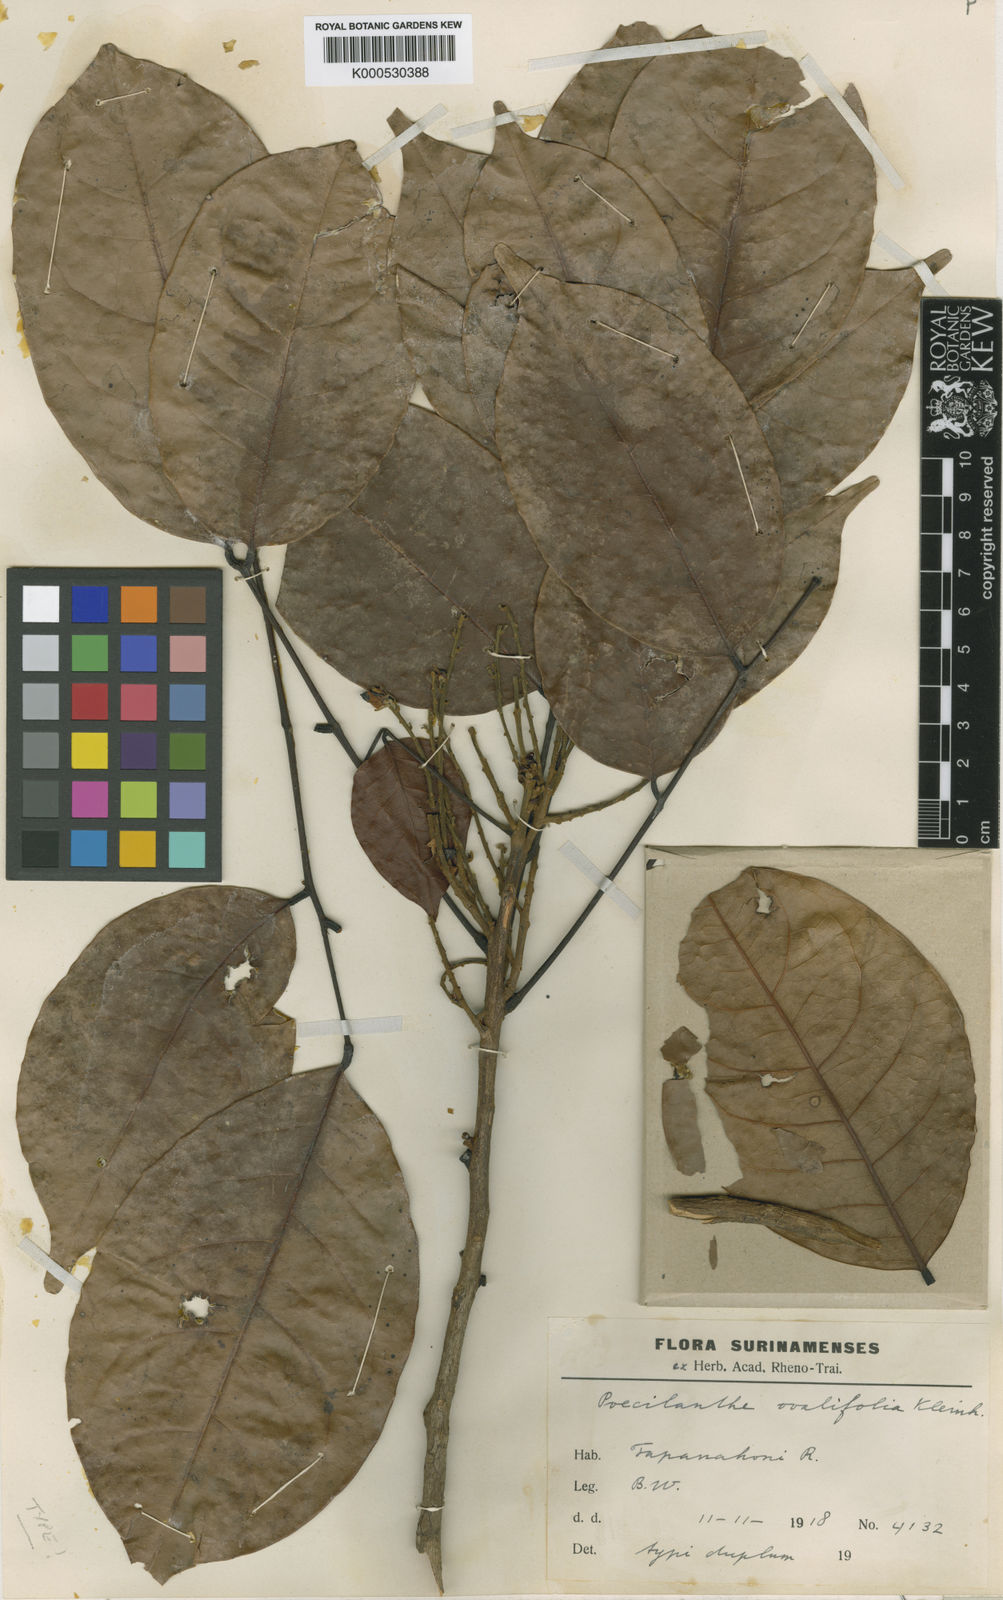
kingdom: Plantae
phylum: Tracheophyta
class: Magnoliopsida
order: Fabales
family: Fabaceae
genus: Amphiodon
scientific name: Amphiodon effusus
